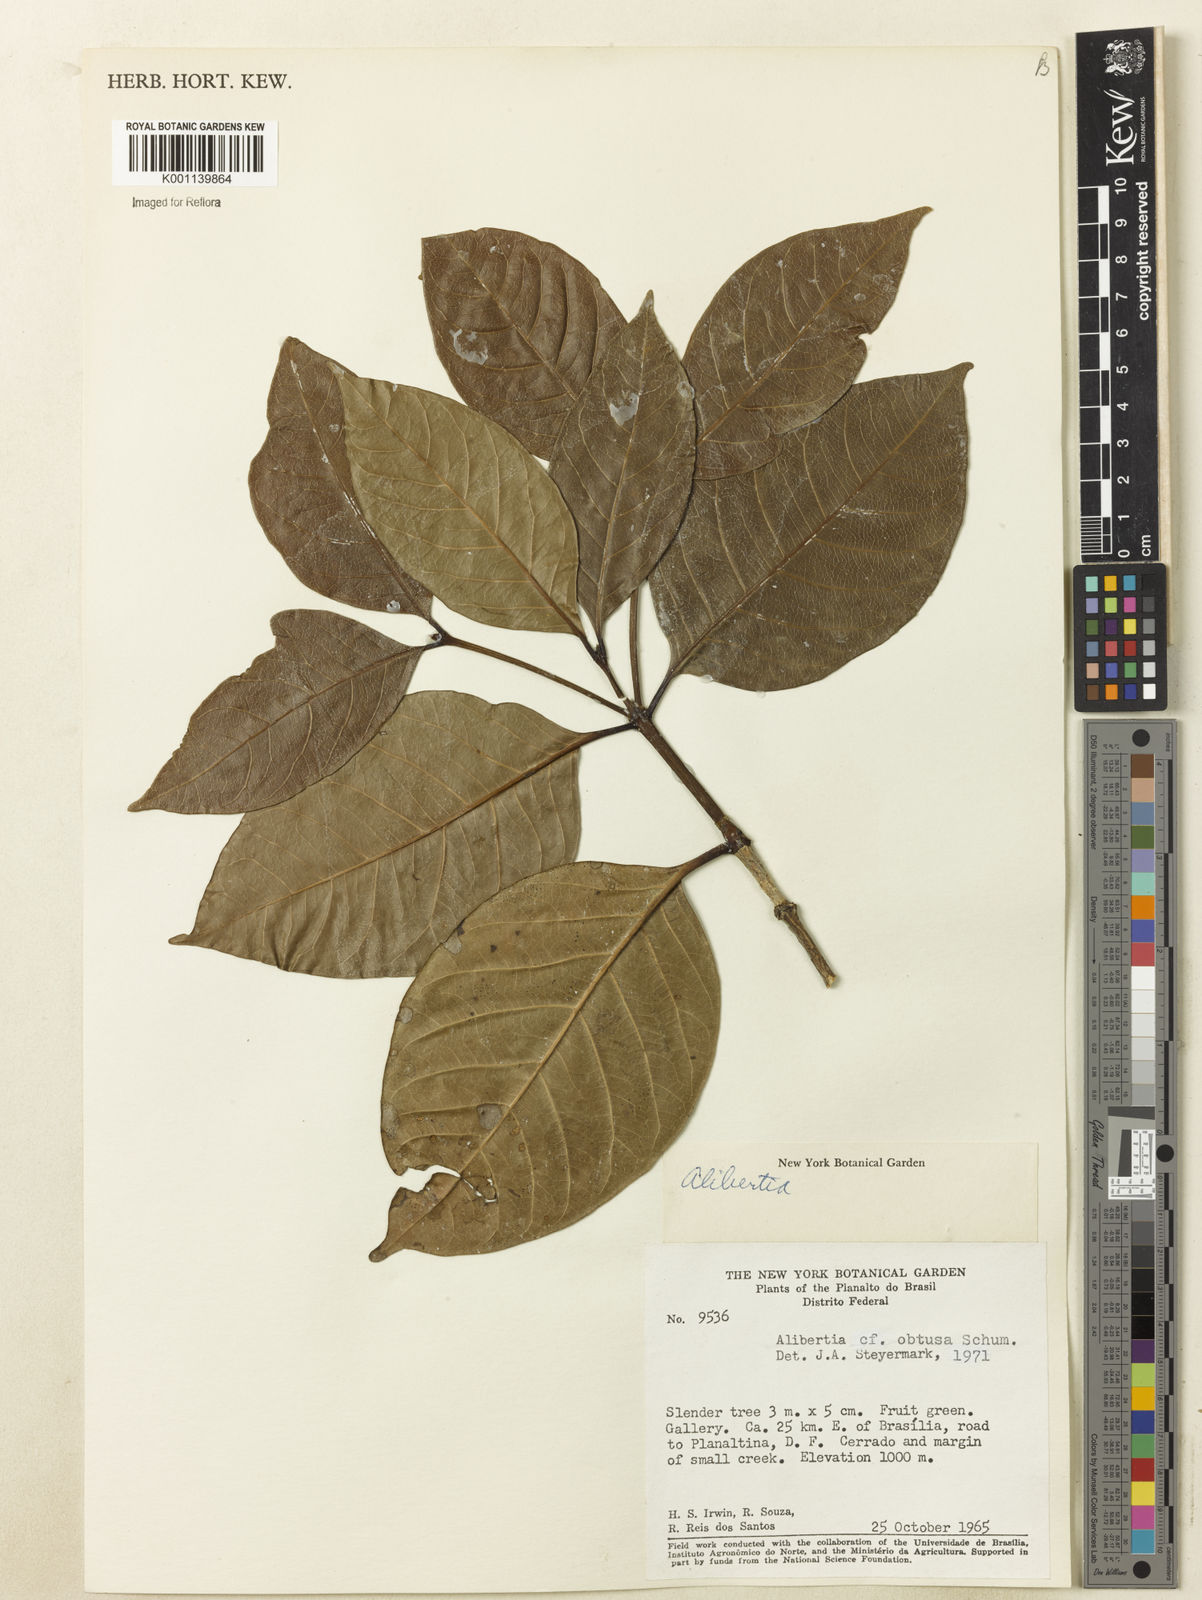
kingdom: Plantae
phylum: Tracheophyta
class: Magnoliopsida
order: Gentianales
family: Rubiaceae
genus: Cordiera
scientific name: Cordiera obtusa
